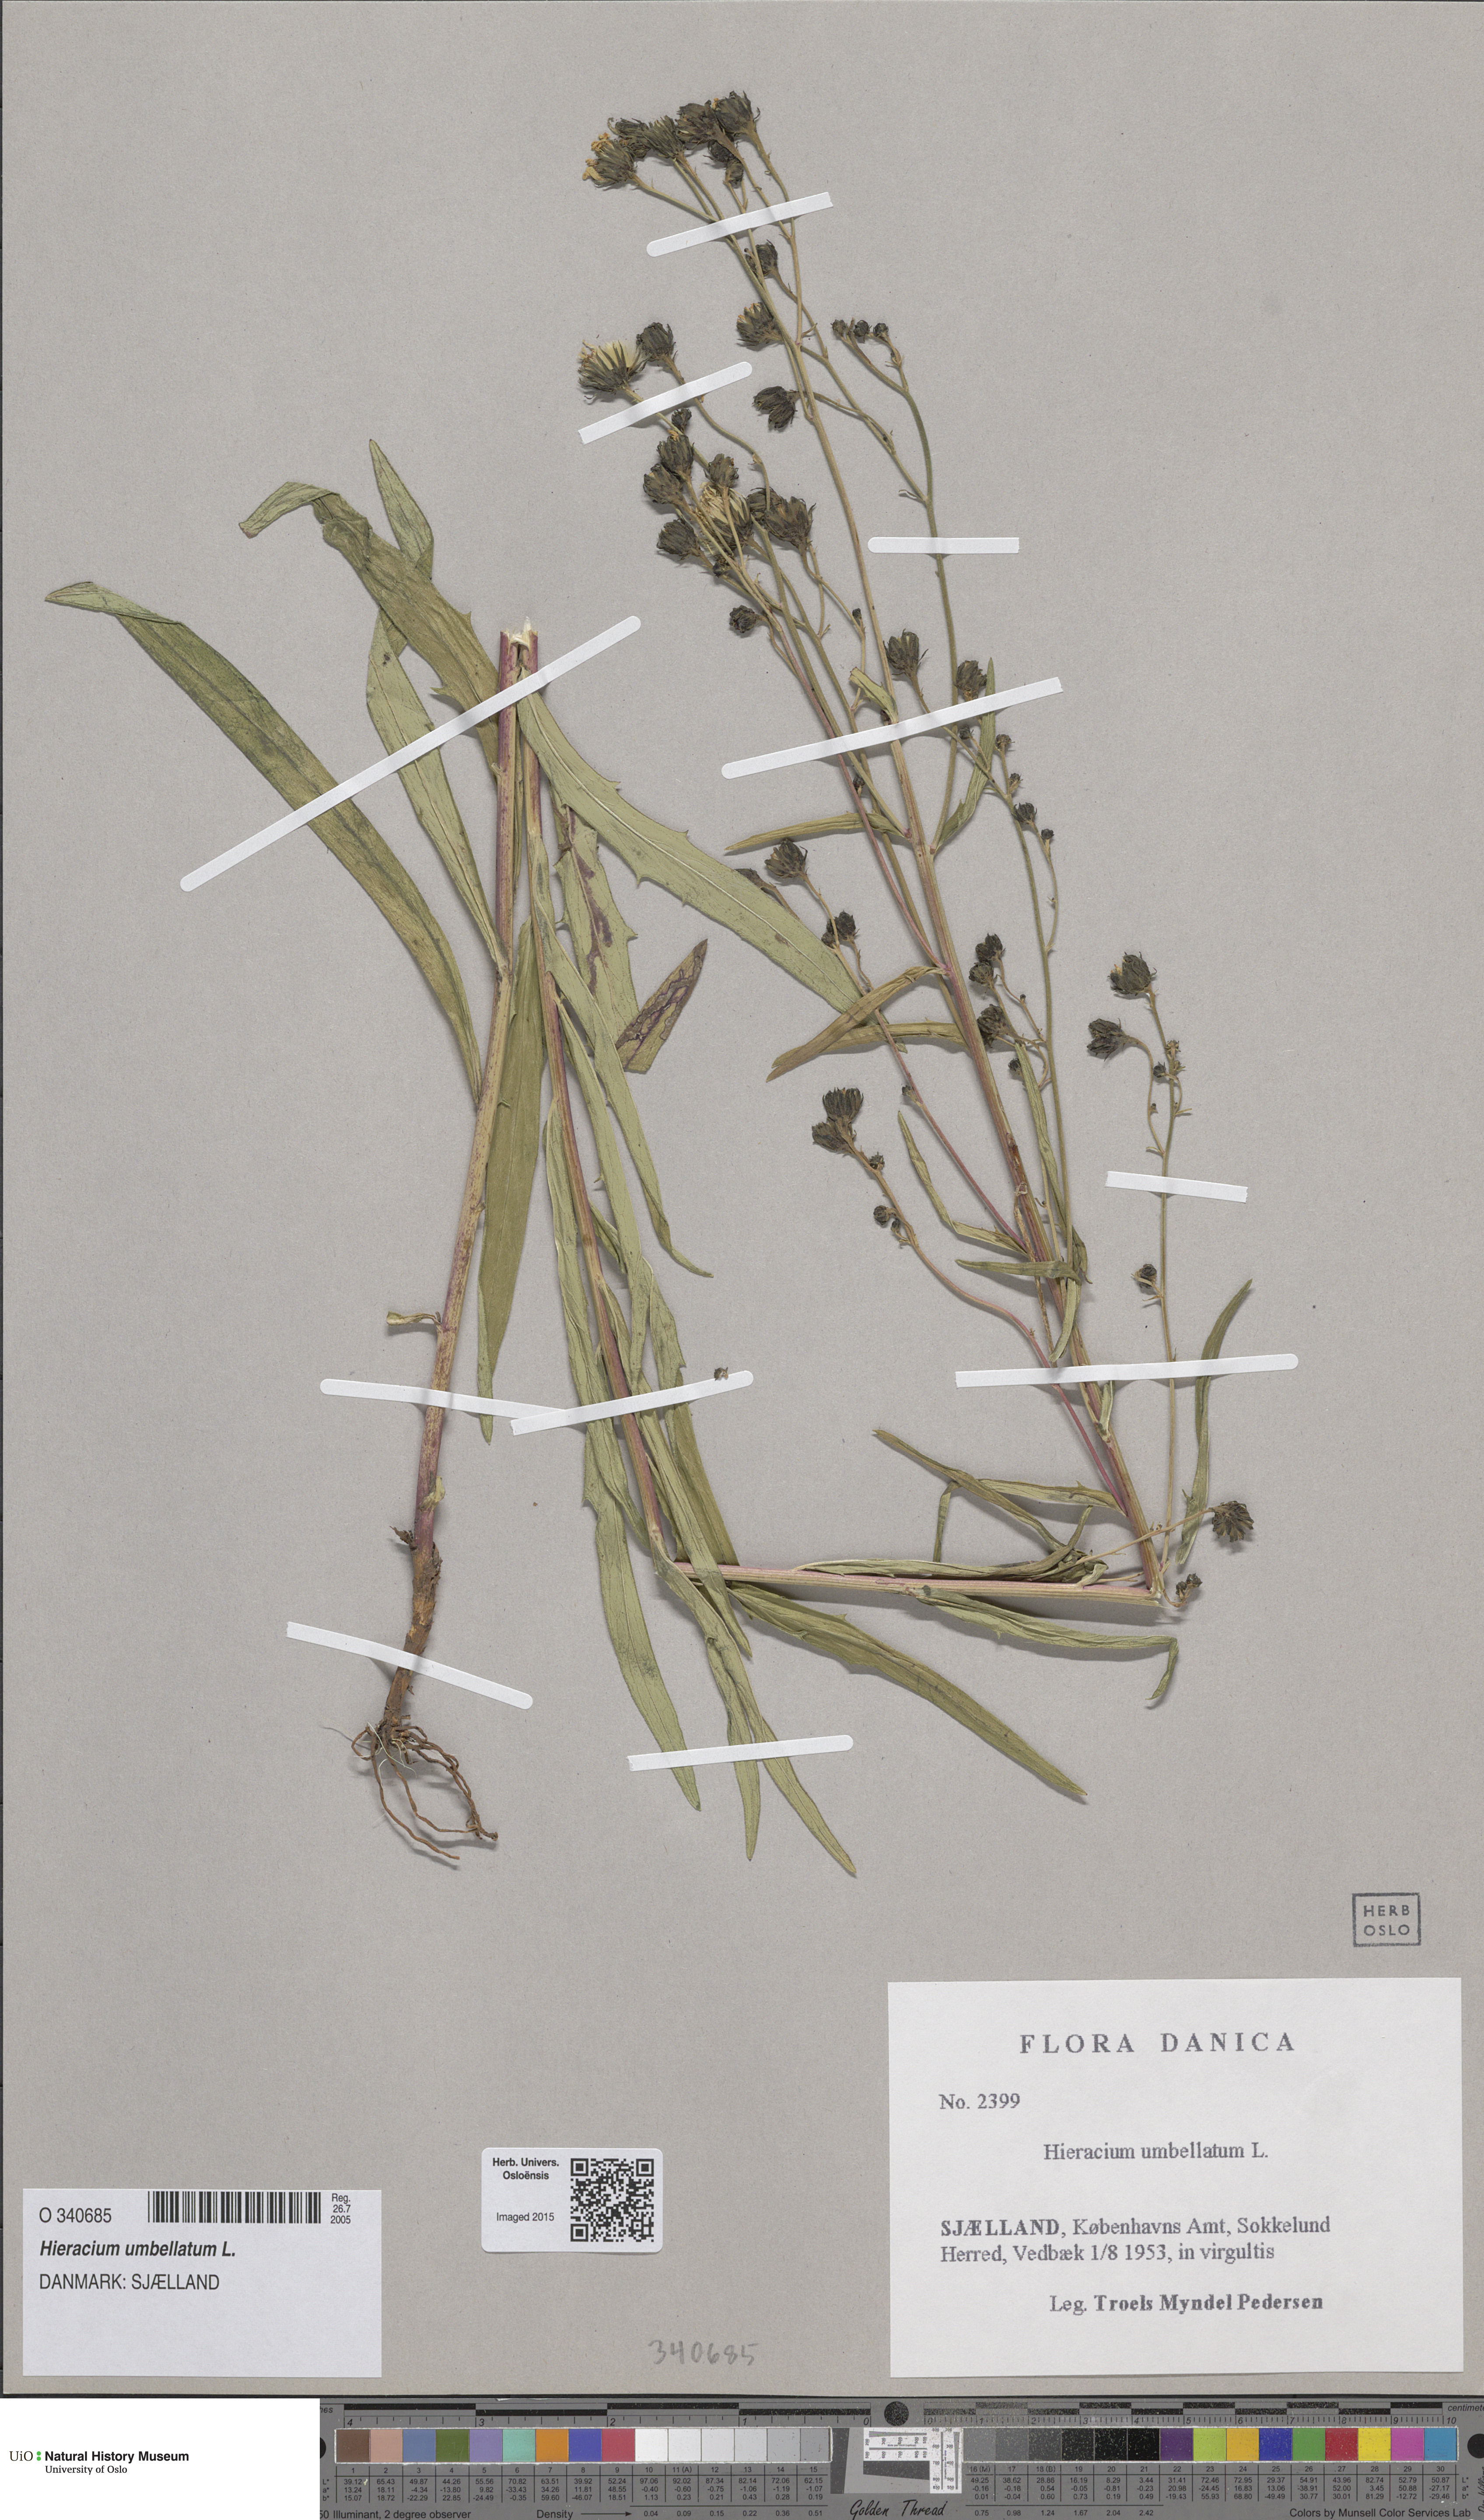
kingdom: Plantae
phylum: Tracheophyta
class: Magnoliopsida
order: Asterales
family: Asteraceae
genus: Hieracium
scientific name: Hieracium umbellatum
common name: Northern hawkweed
